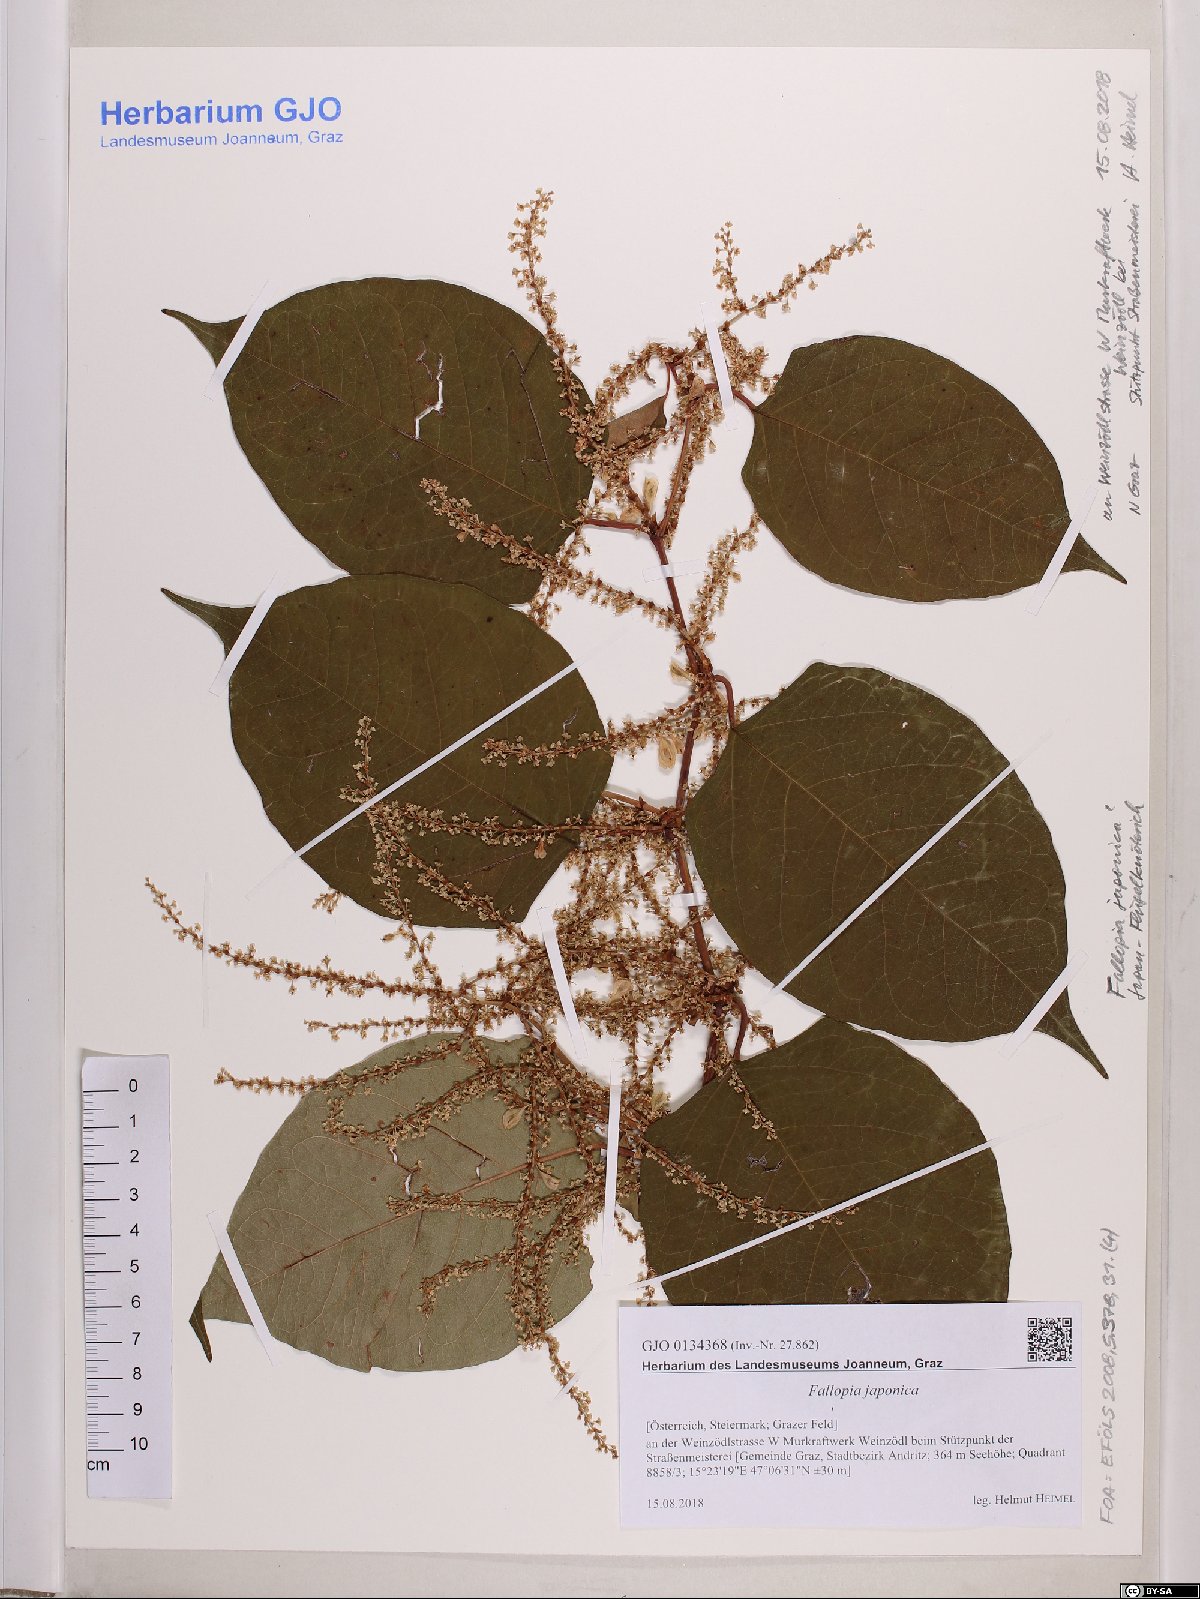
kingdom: Plantae
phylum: Tracheophyta
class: Magnoliopsida
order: Caryophyllales
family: Polygonaceae
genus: Reynoutria
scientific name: Reynoutria japonica
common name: Japanese knotweed
